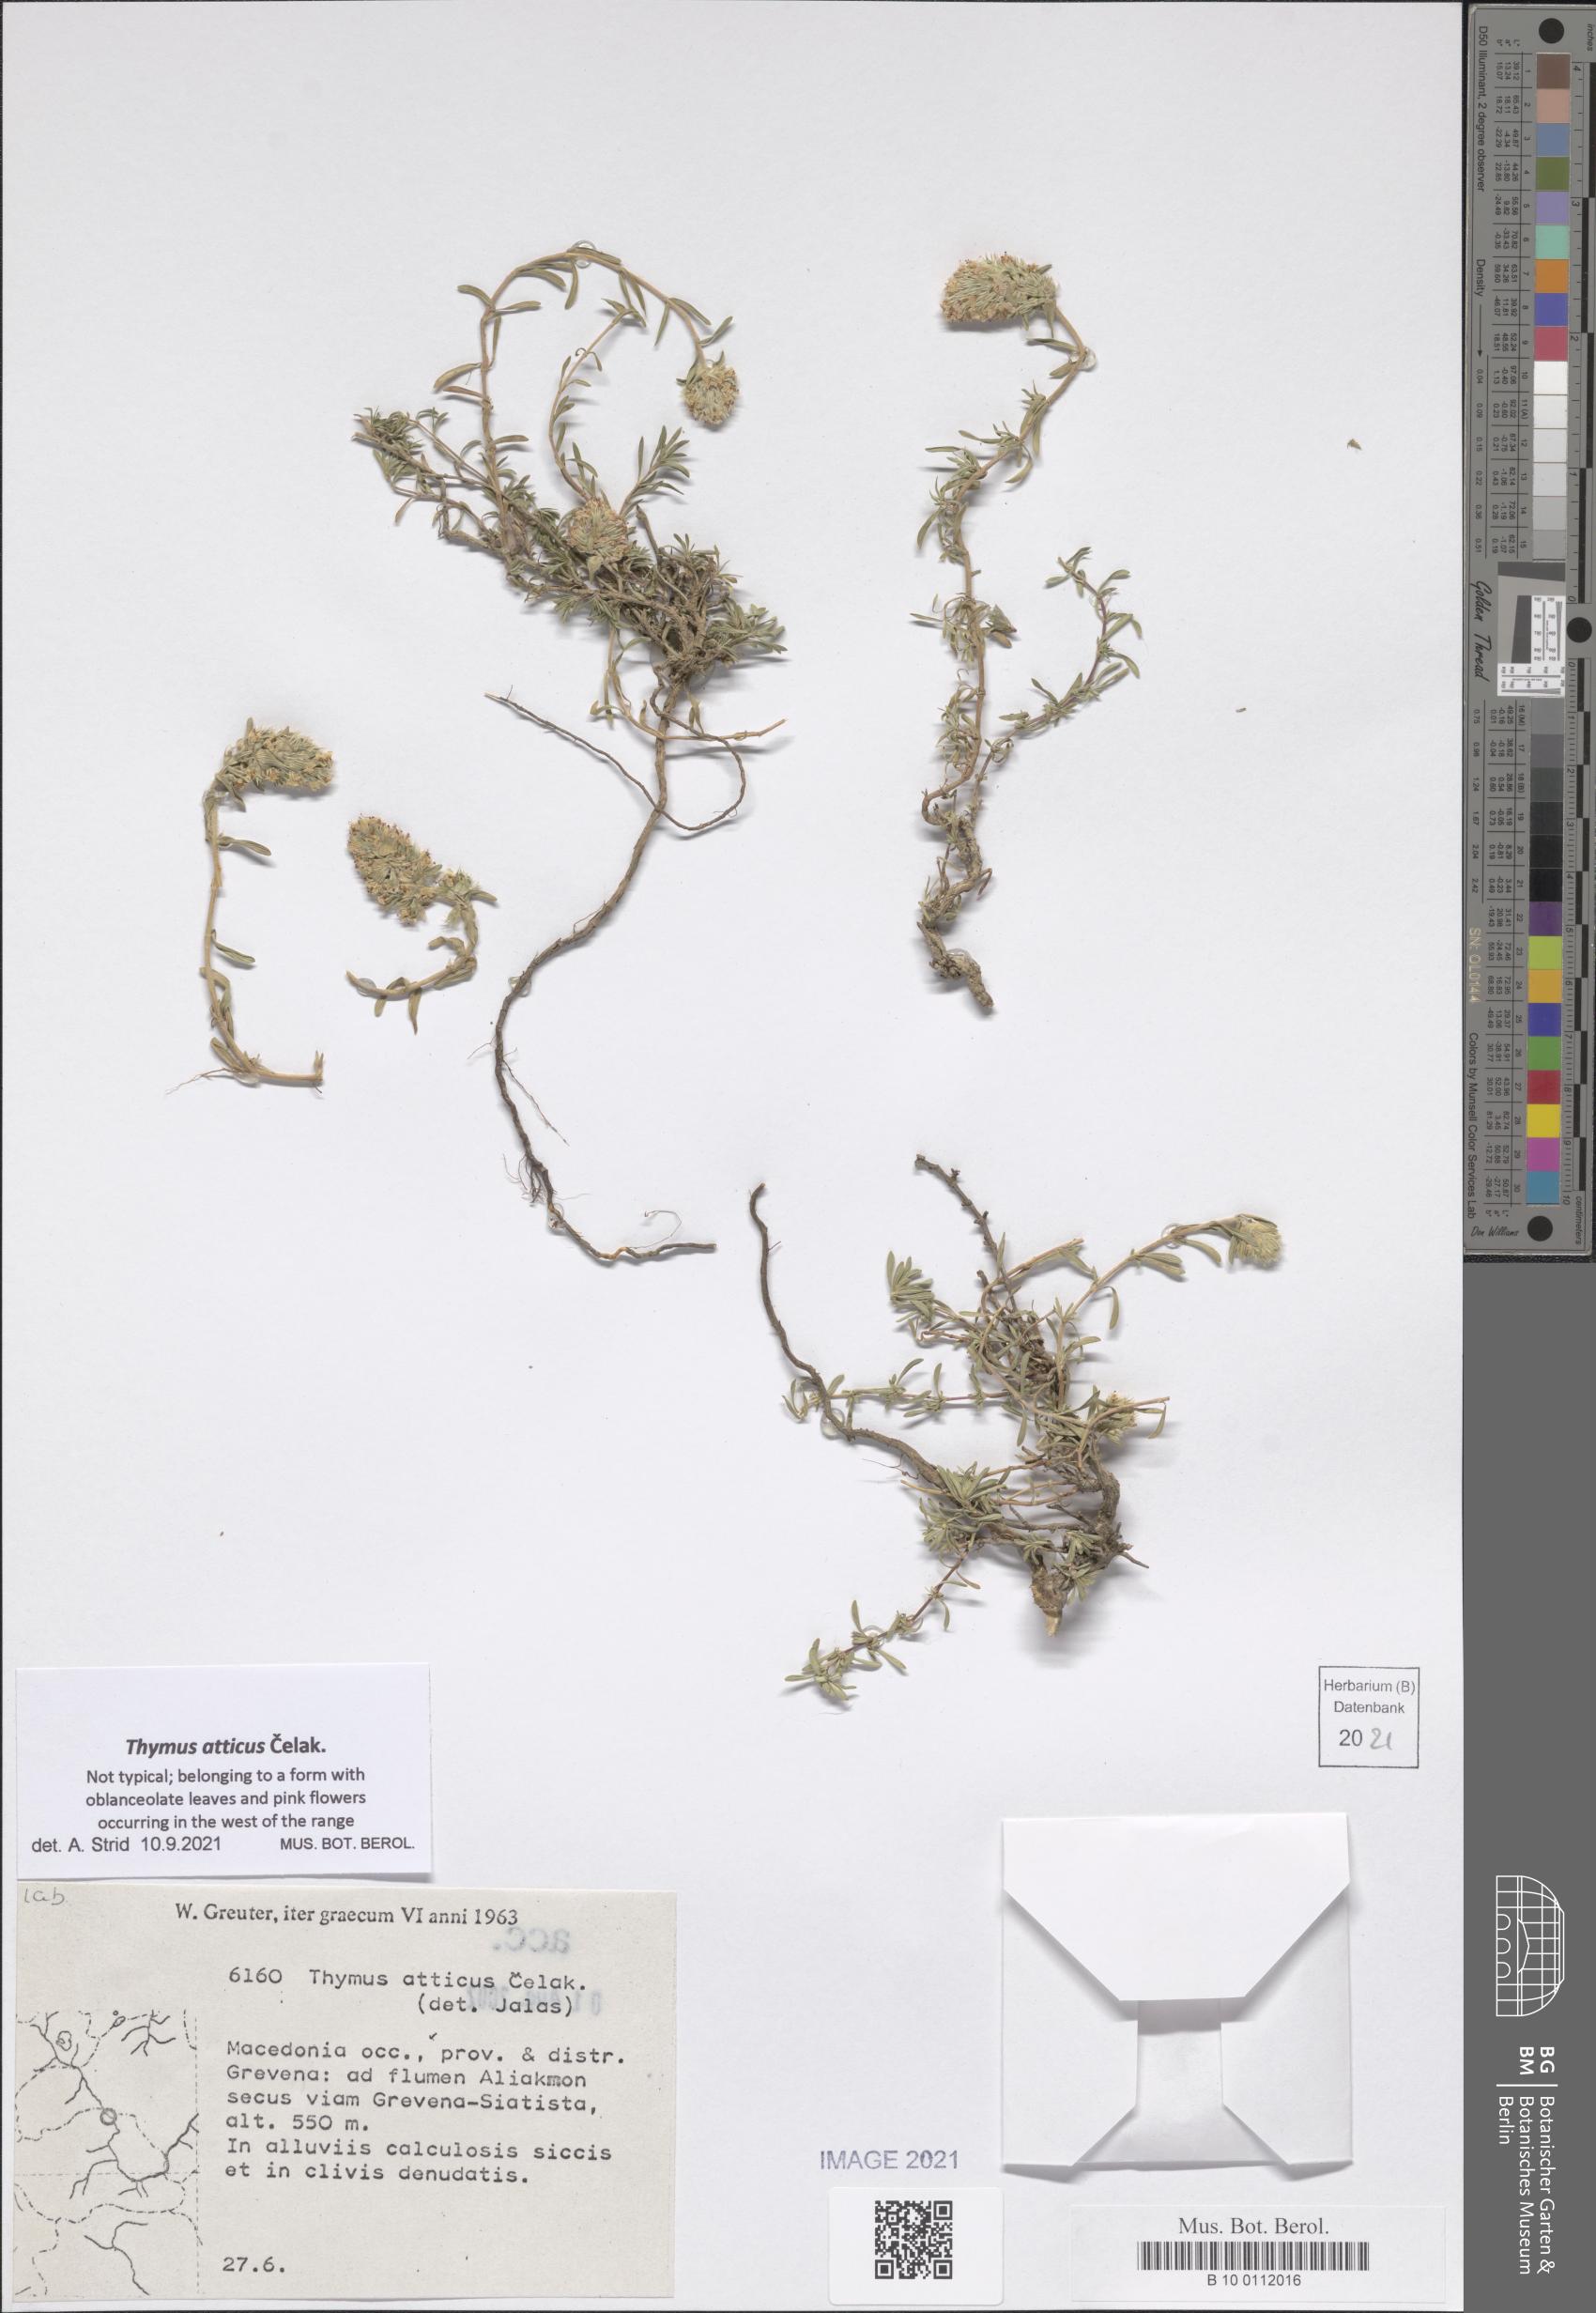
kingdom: Plantae
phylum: Tracheophyta
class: Magnoliopsida
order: Lamiales
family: Lamiaceae
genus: Thymus
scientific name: Thymus atticus
